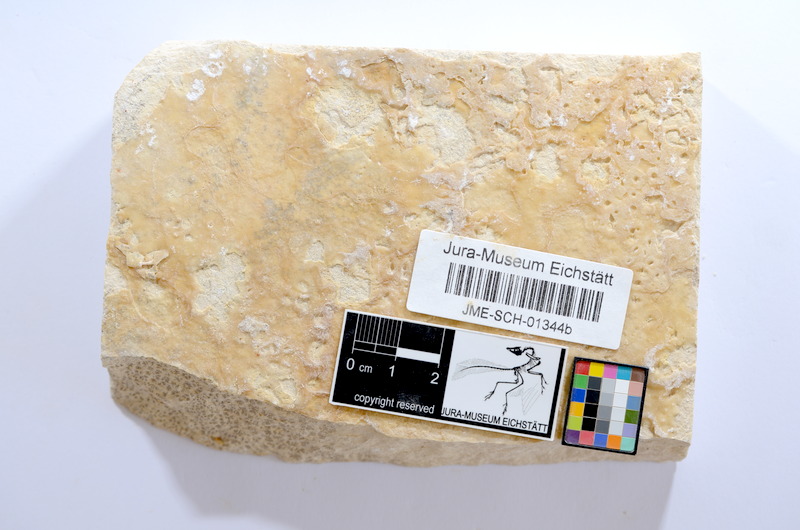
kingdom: Animalia
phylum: Chordata
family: Ascalaboidae
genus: Tharsis
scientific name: Tharsis dubius
